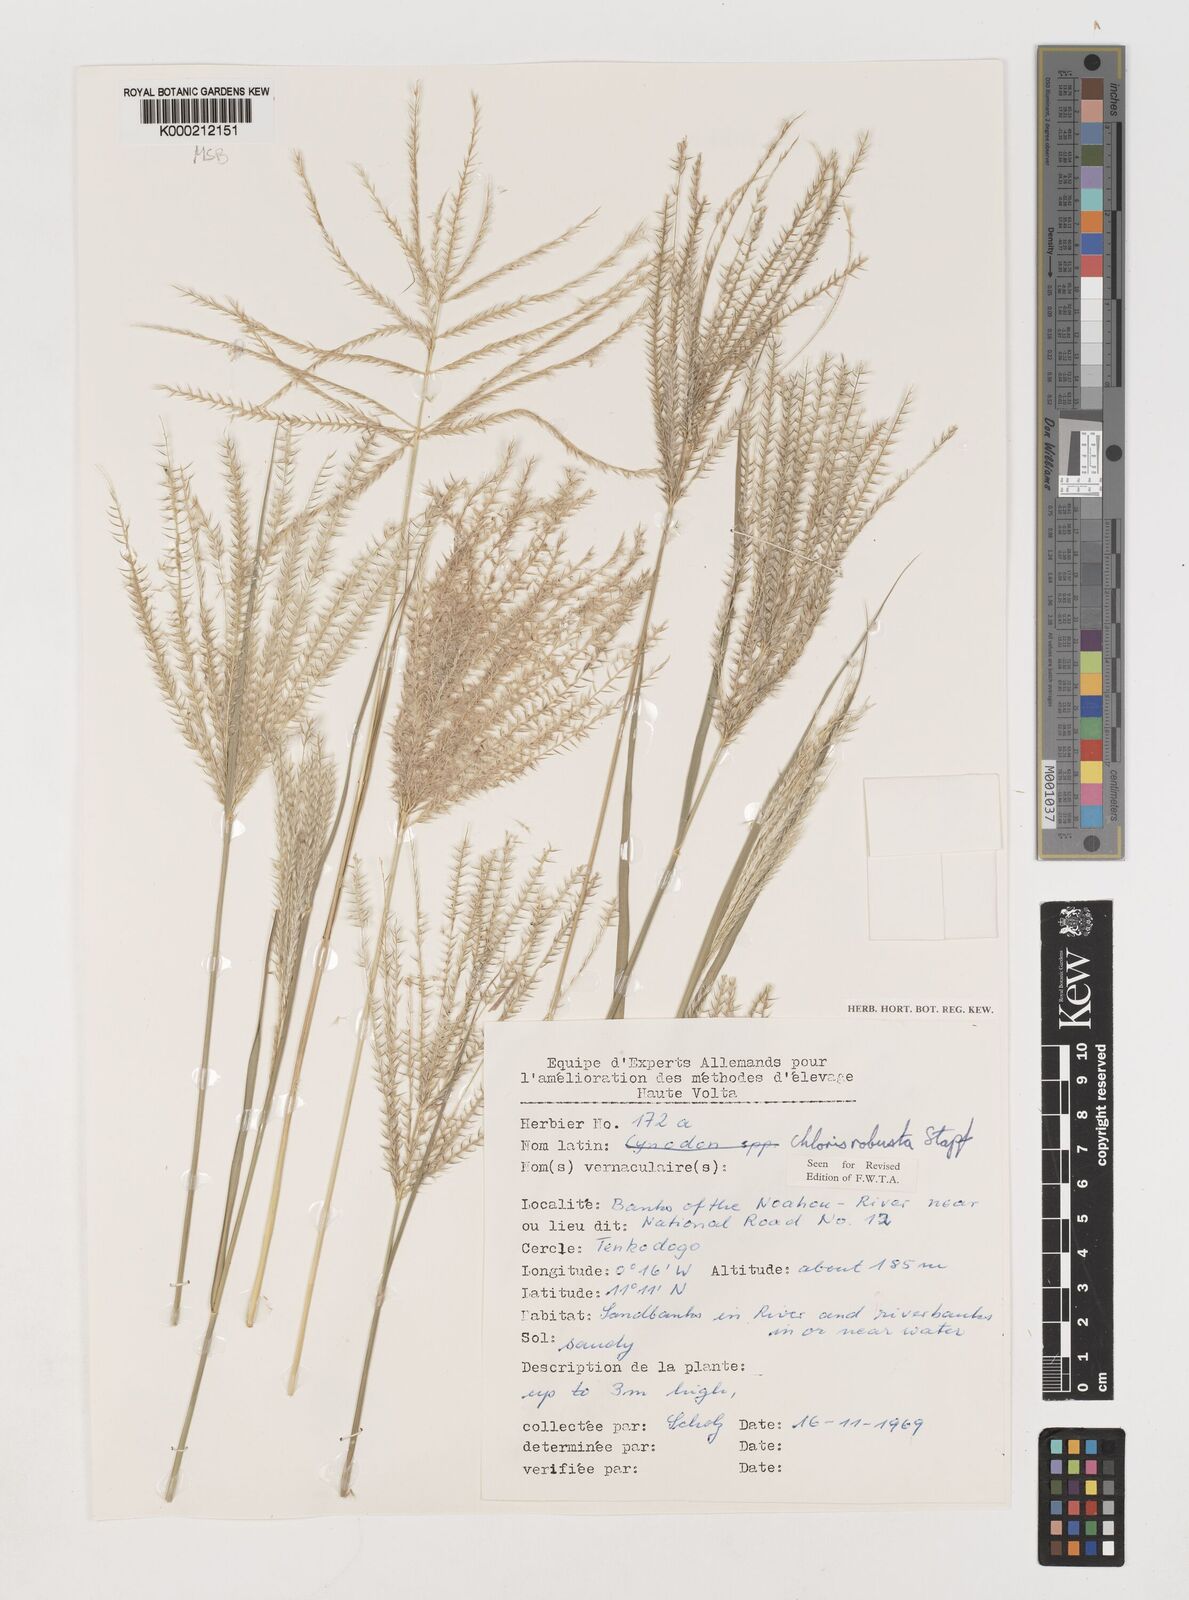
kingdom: Plantae
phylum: Tracheophyta
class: Liliopsida
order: Poales
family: Poaceae
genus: Chloris
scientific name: Chloris robusta
